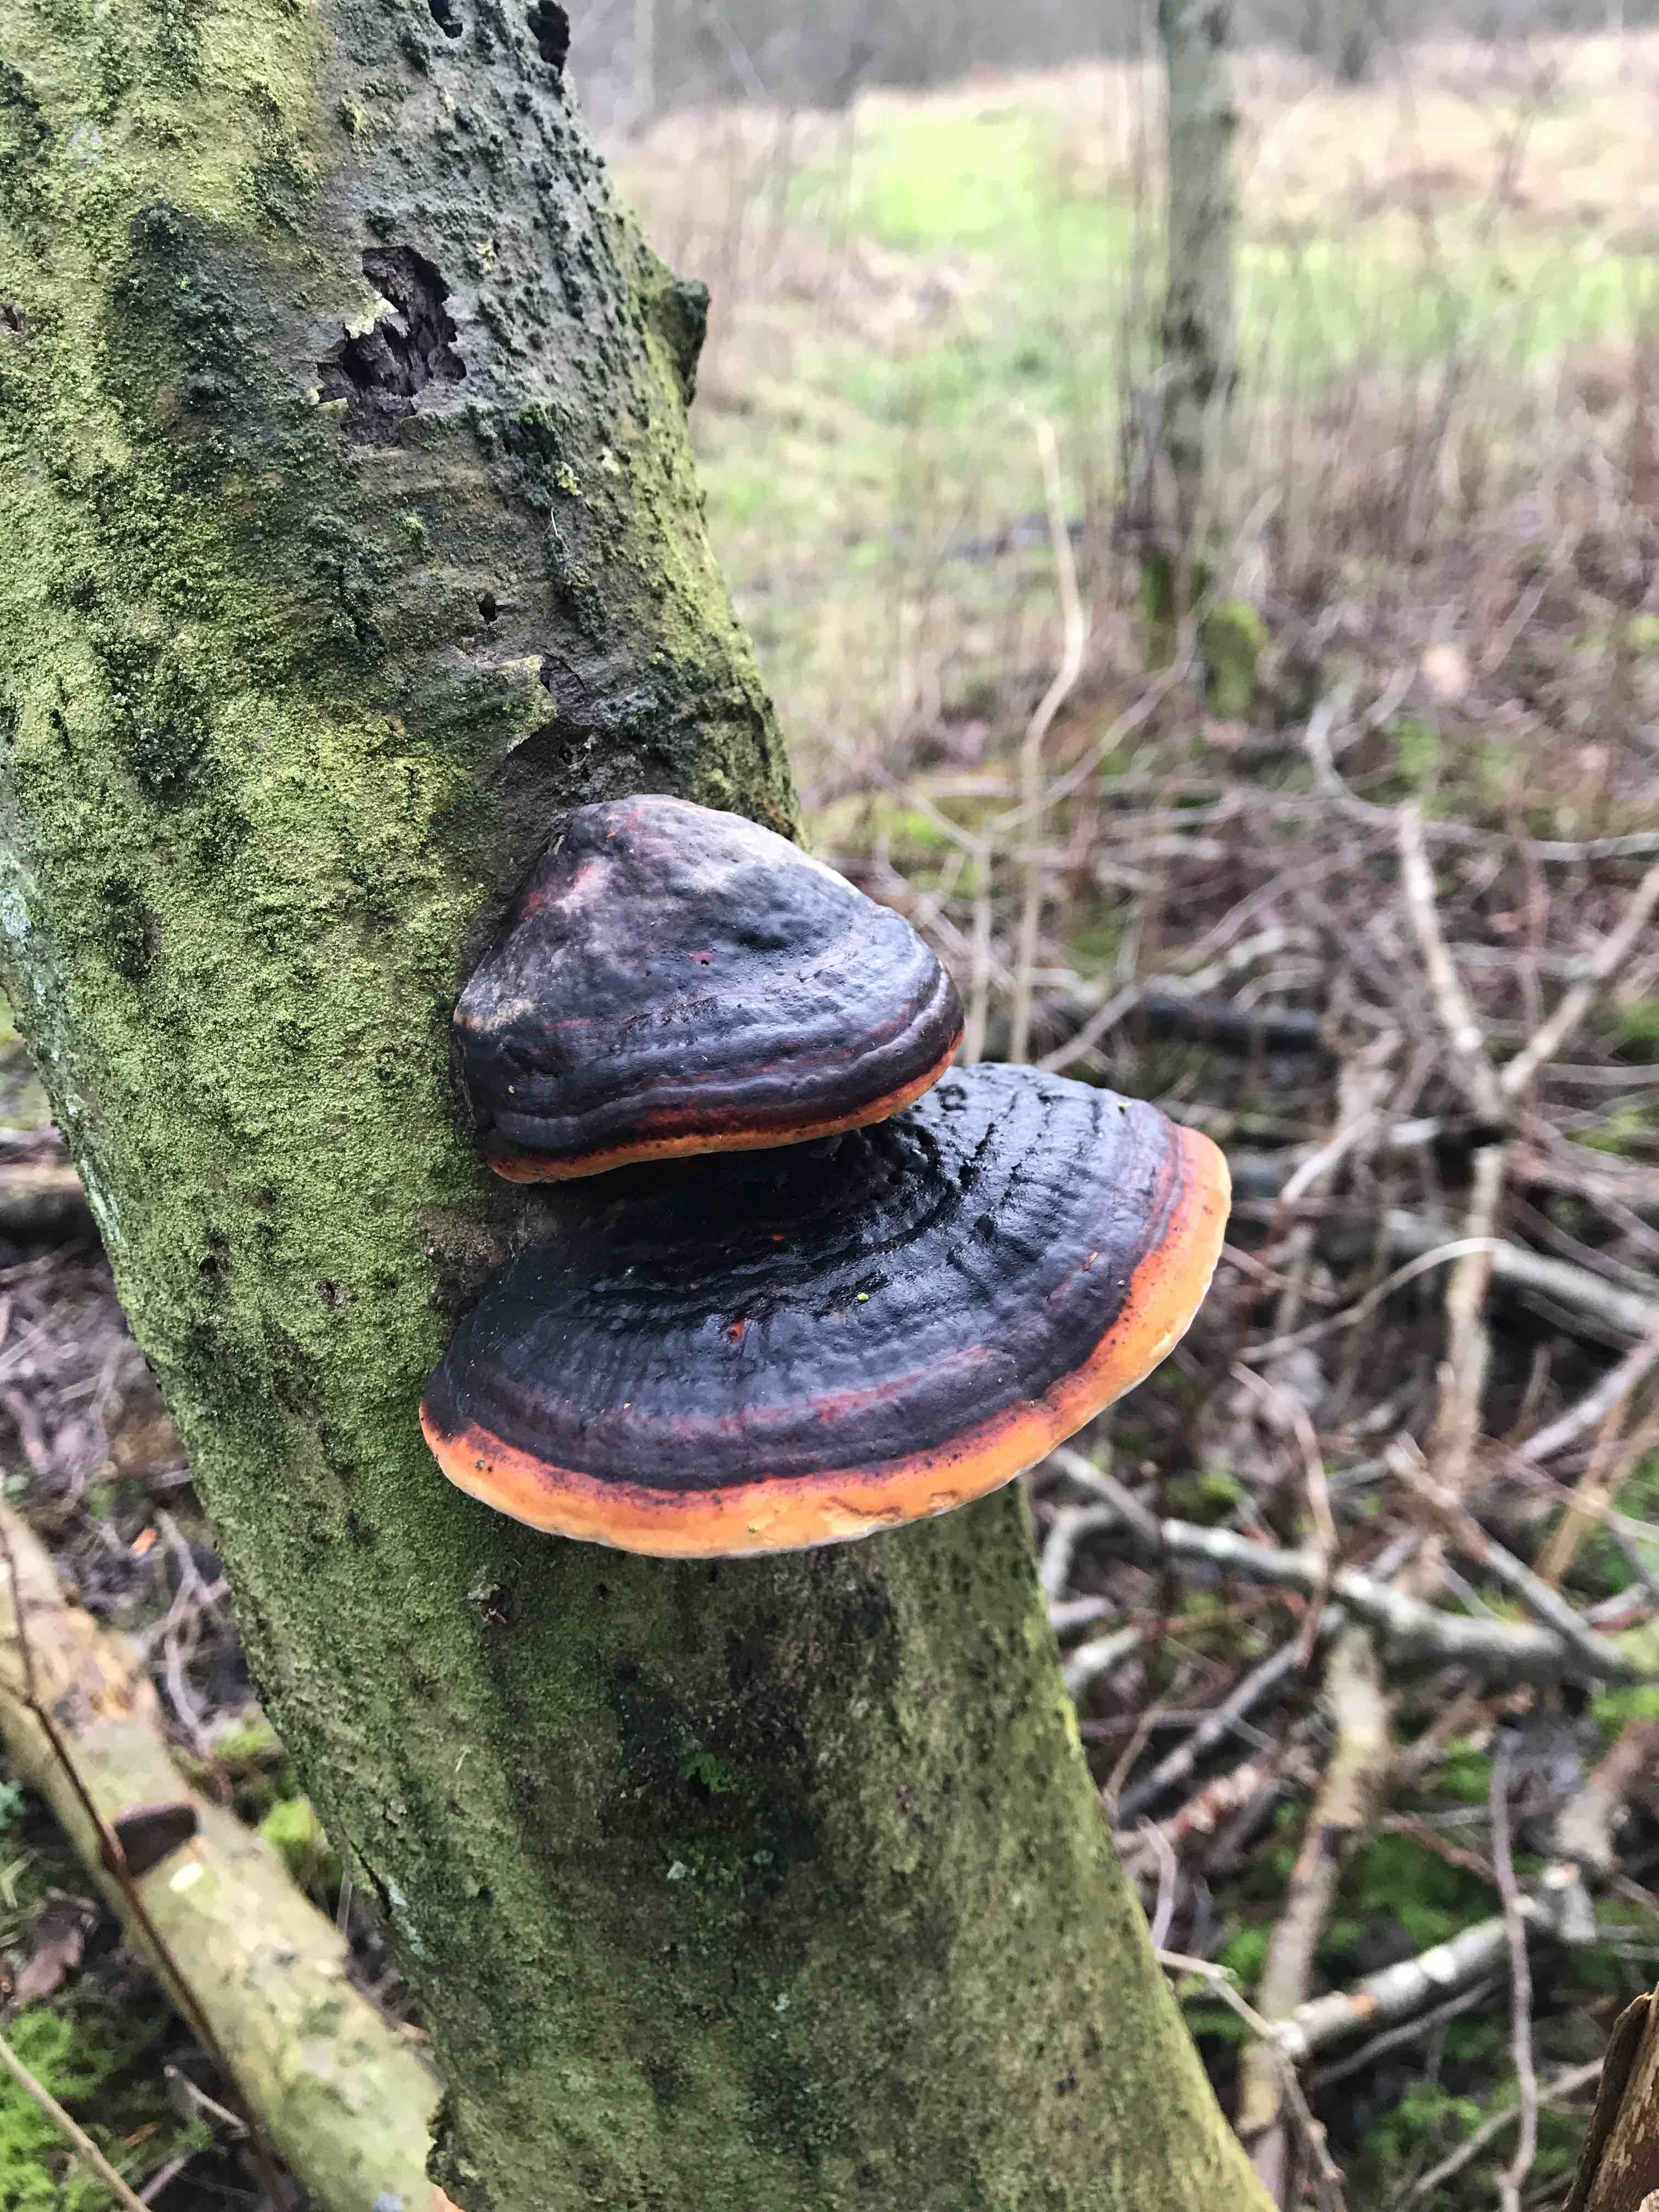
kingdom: Fungi
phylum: Basidiomycota
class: Agaricomycetes
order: Polyporales
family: Fomitopsidaceae
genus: Fomitopsis
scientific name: Fomitopsis pinicola
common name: randbæltet hovporesvamp
